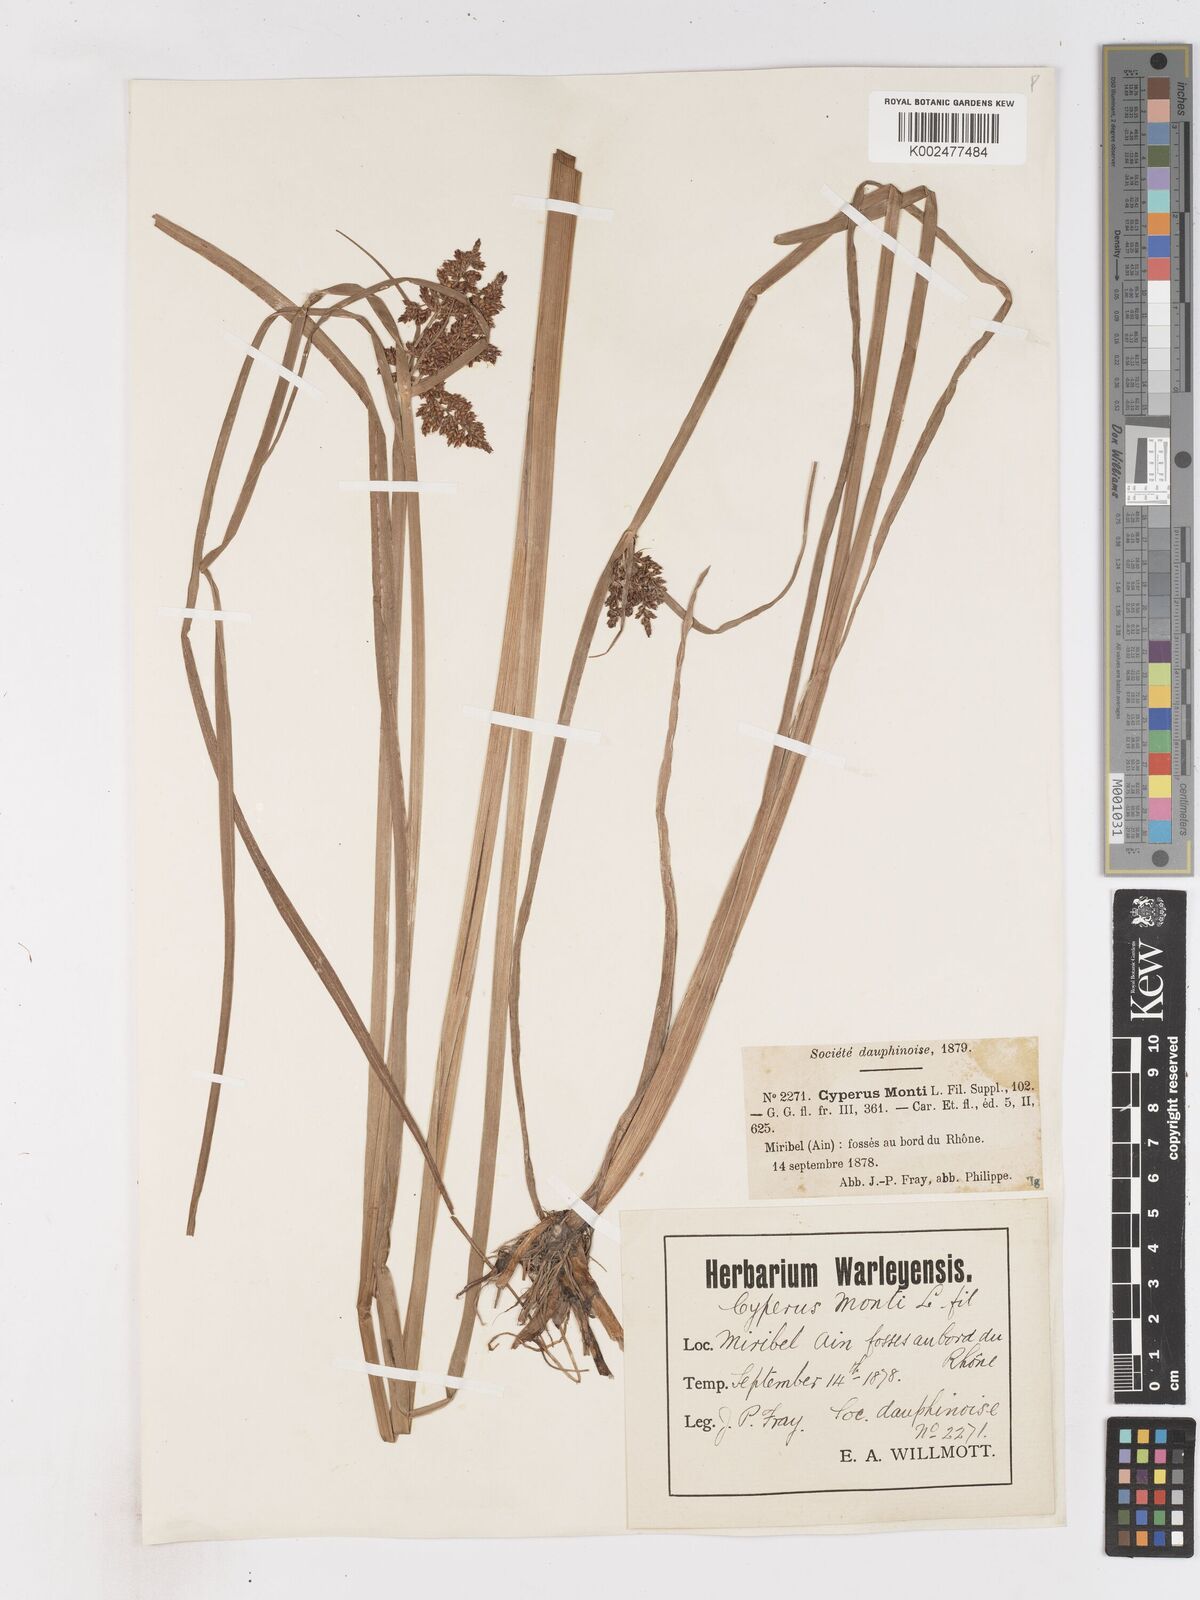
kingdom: Plantae
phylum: Tracheophyta
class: Liliopsida
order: Poales
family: Cyperaceae
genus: Cyperus
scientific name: Cyperus serotinus
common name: Tidalmarsh flatsedge
